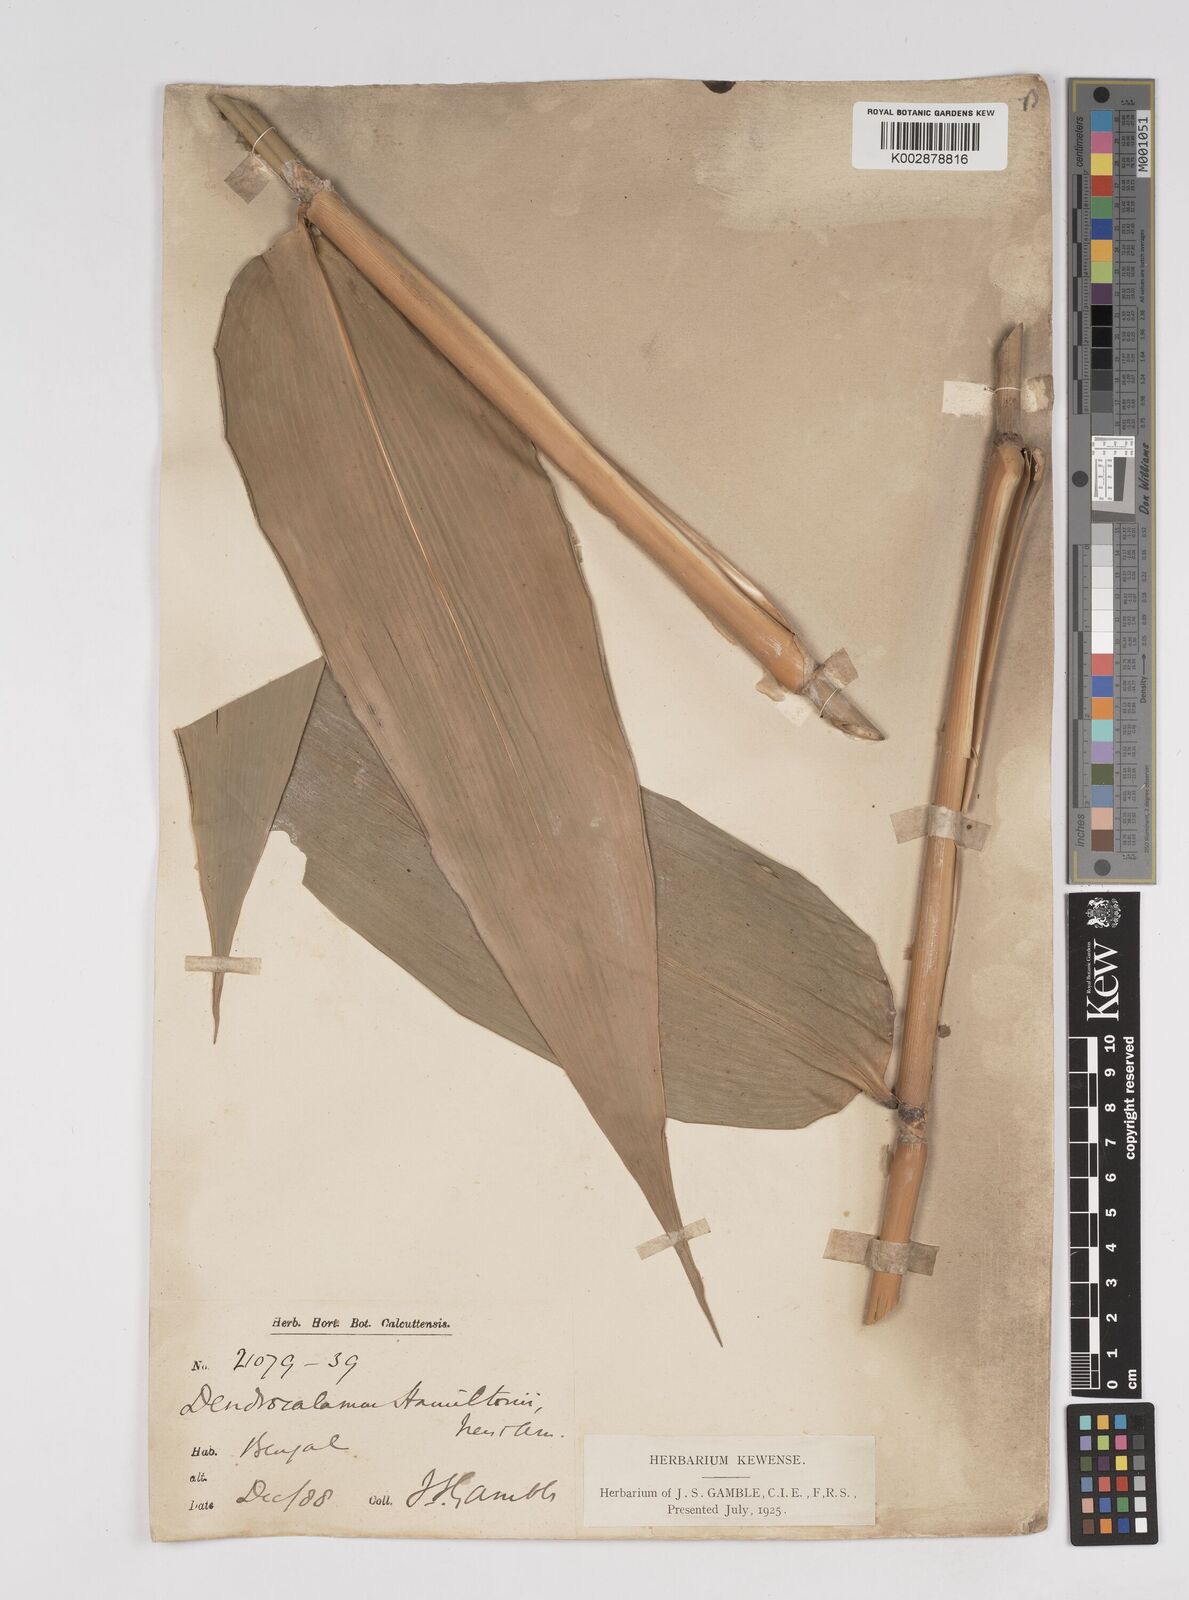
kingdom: Plantae
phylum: Tracheophyta
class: Liliopsida
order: Poales
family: Poaceae
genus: Dendrocalamus
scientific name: Dendrocalamus hamiltonii
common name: Tama bamboo
